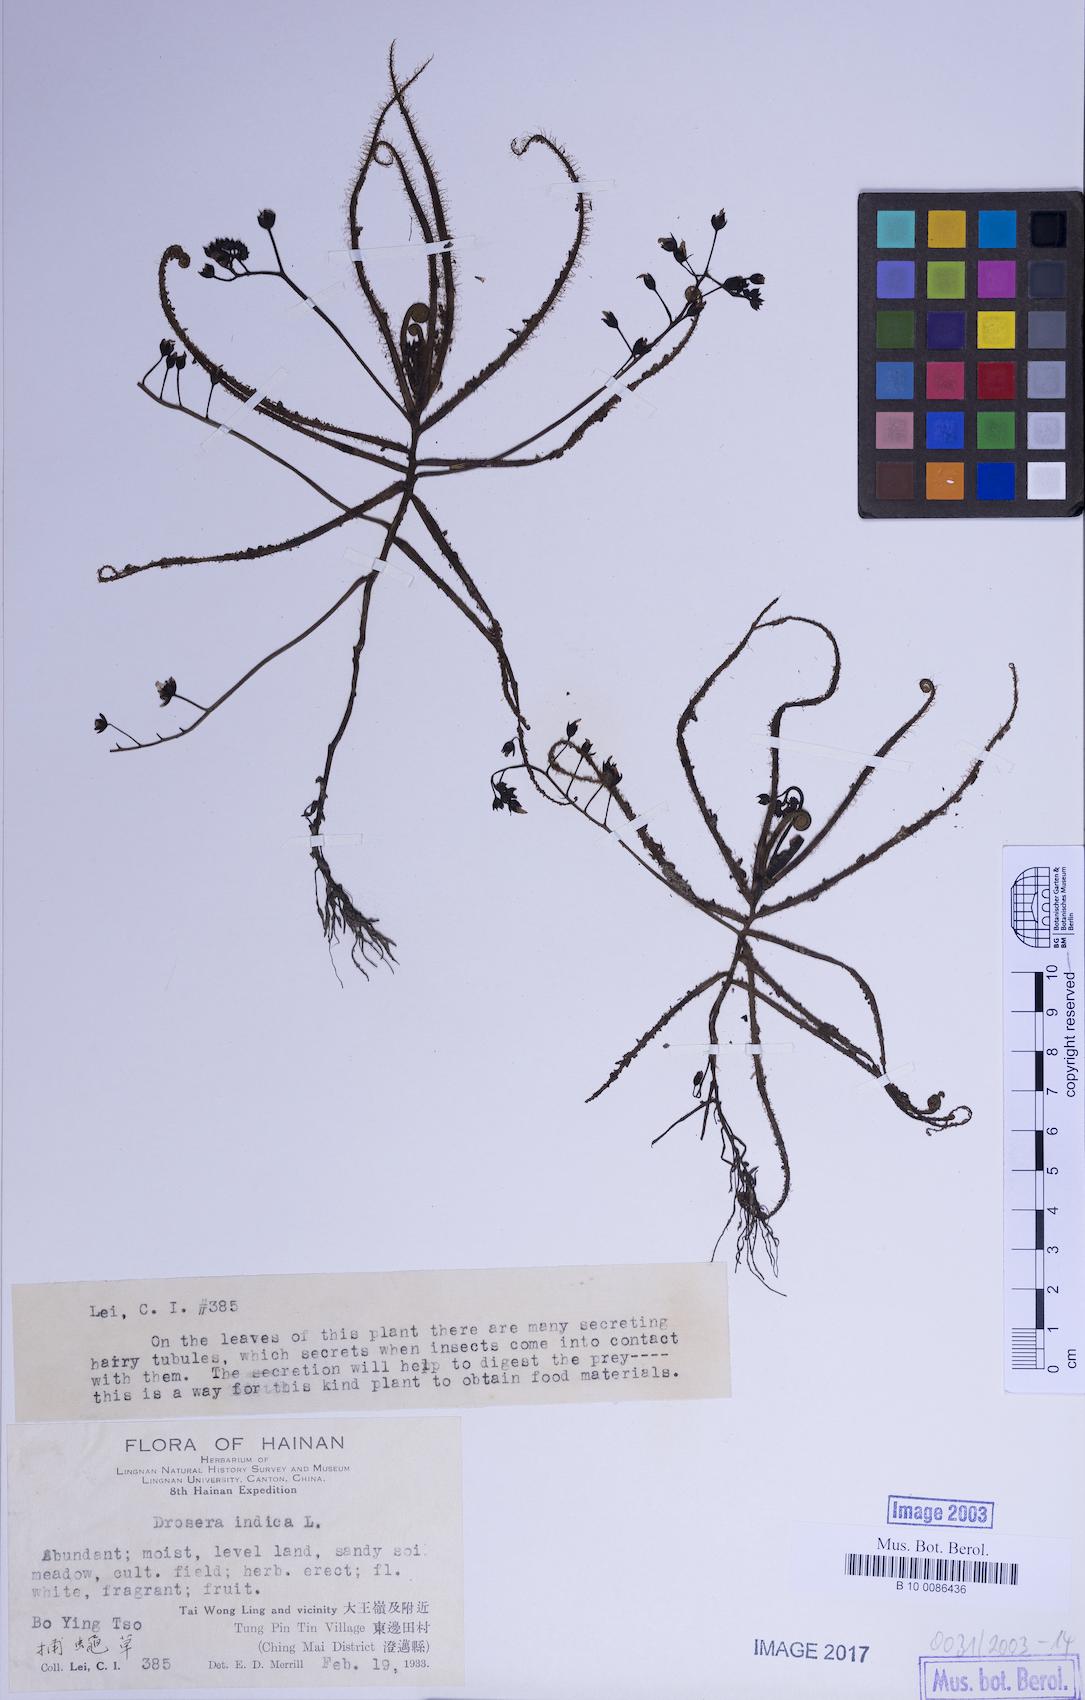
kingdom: Plantae
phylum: Tracheophyta
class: Magnoliopsida
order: Caryophyllales
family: Droseraceae
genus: Drosera
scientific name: Drosera indica
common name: Indian sundew
